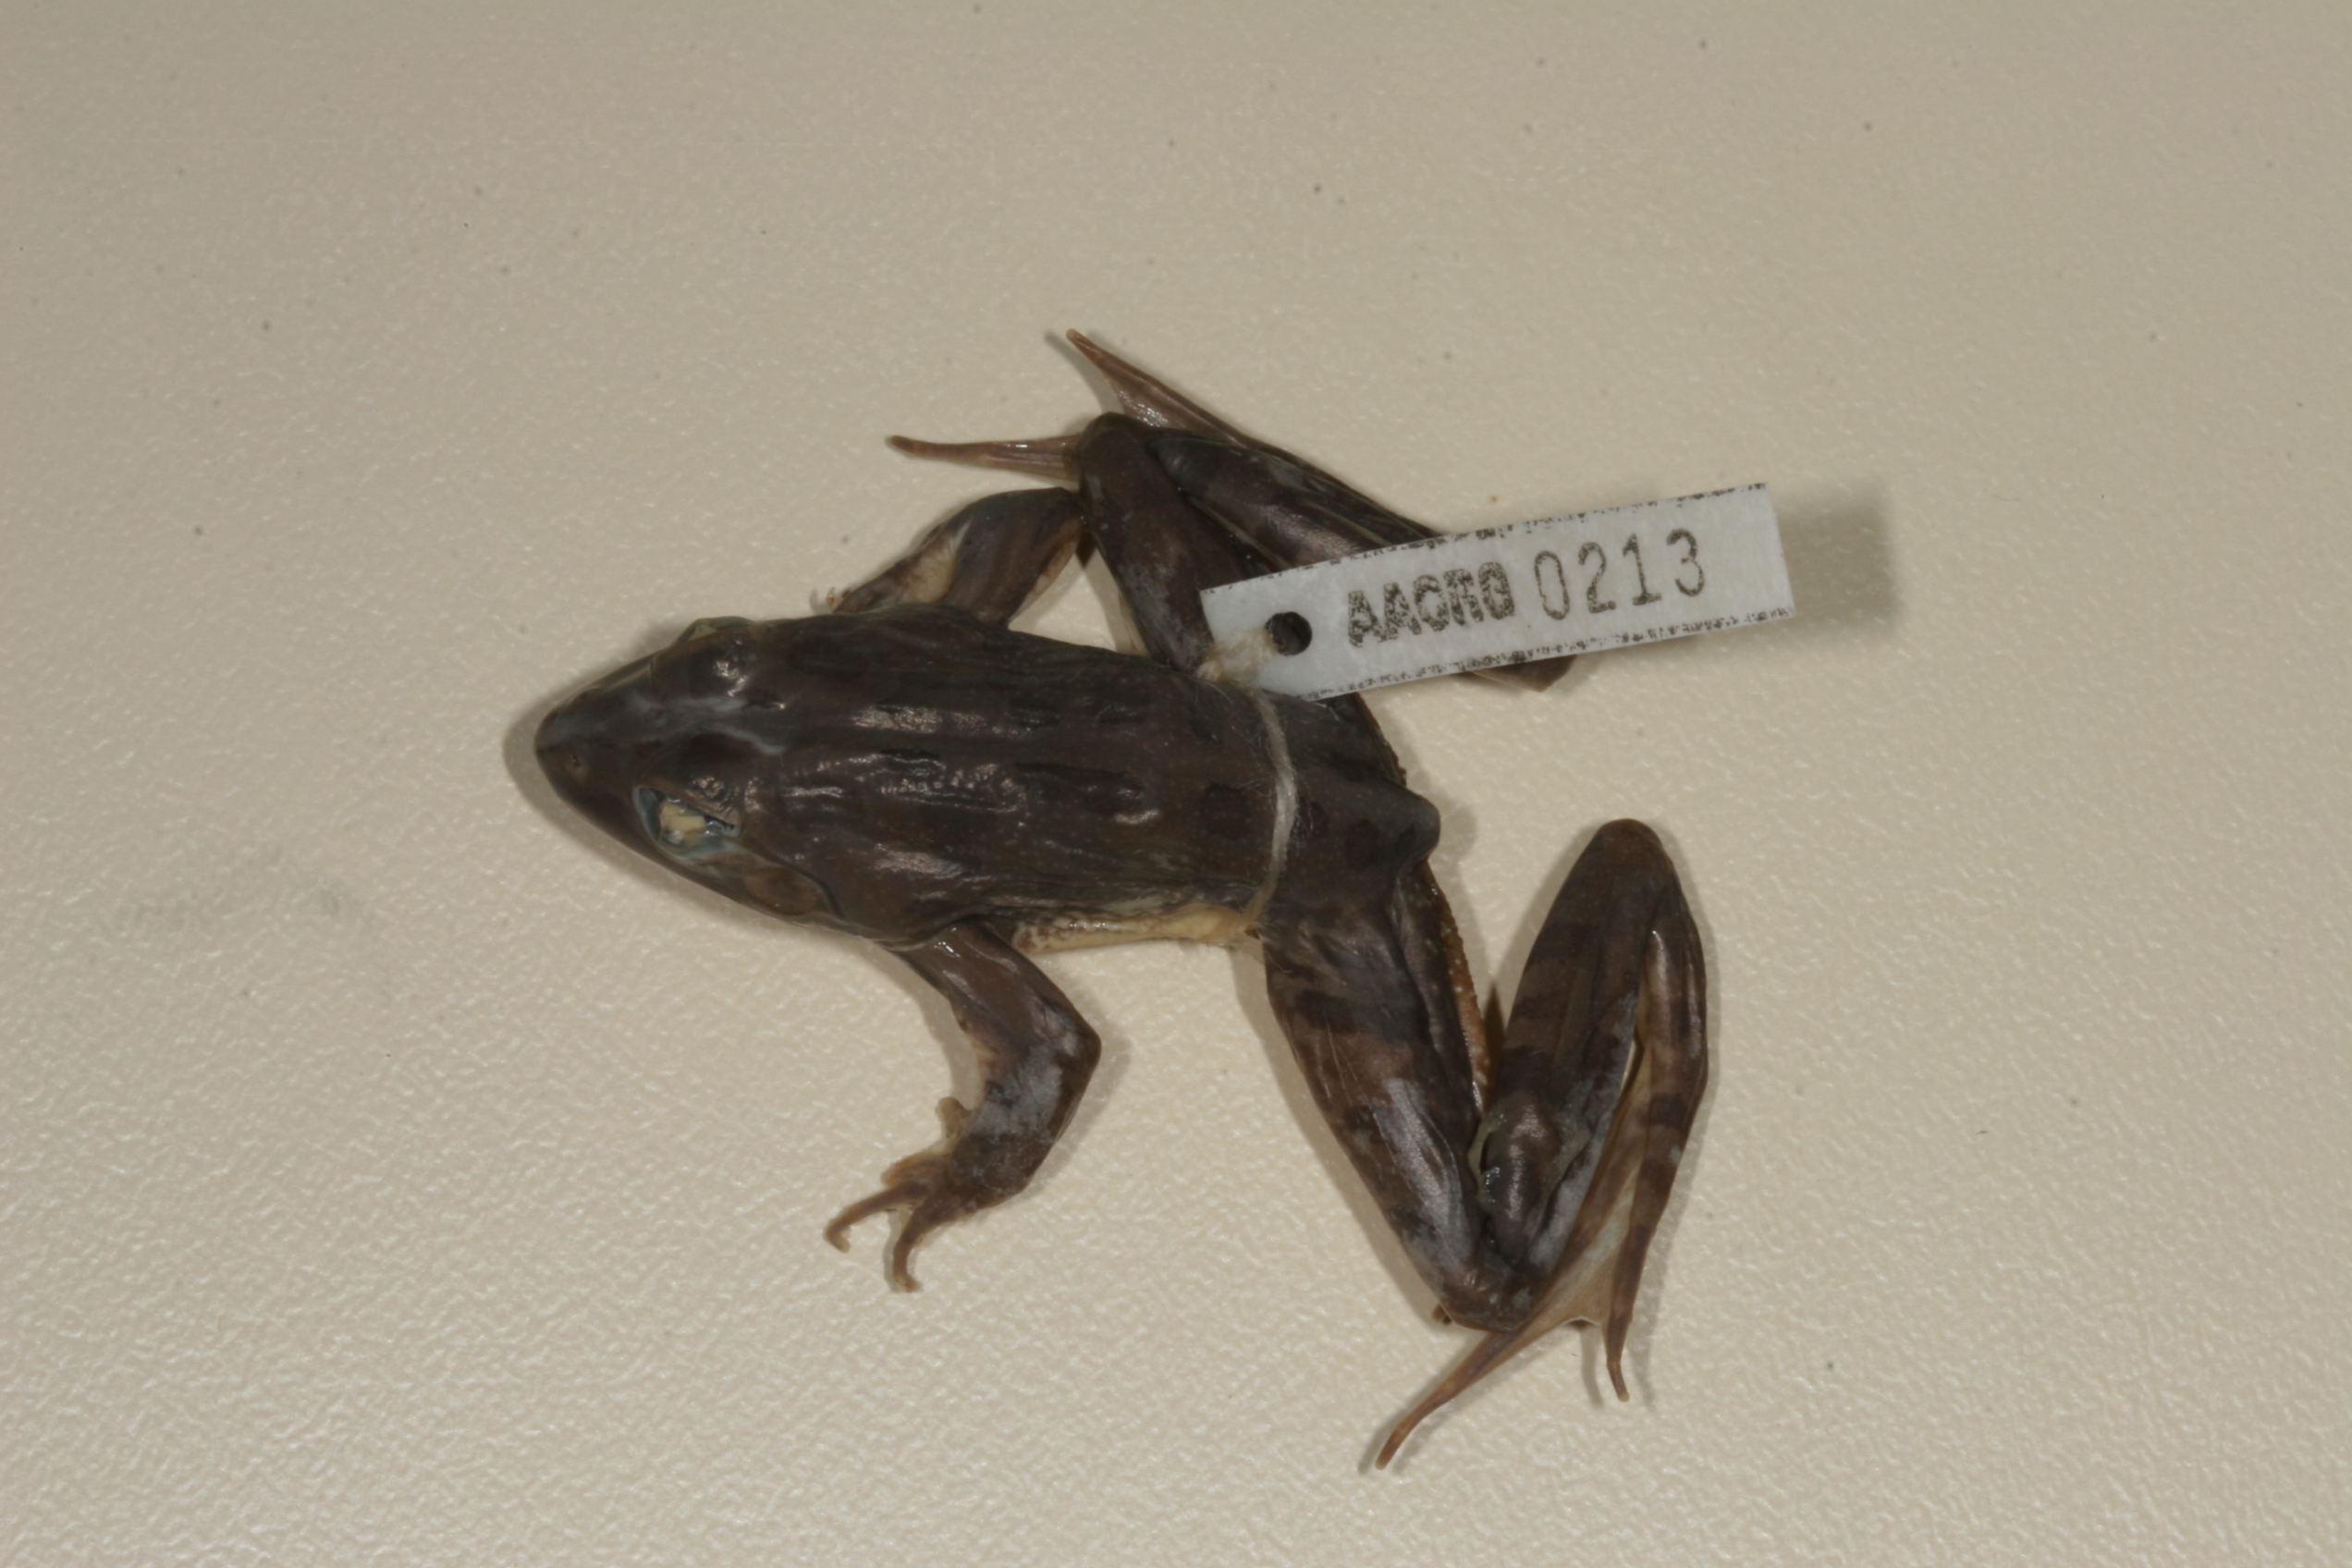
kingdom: Animalia
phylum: Chordata
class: Amphibia
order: Anura
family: Pyxicephalidae
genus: Amietia
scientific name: Amietia angolensis
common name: Dusky-throated frog
